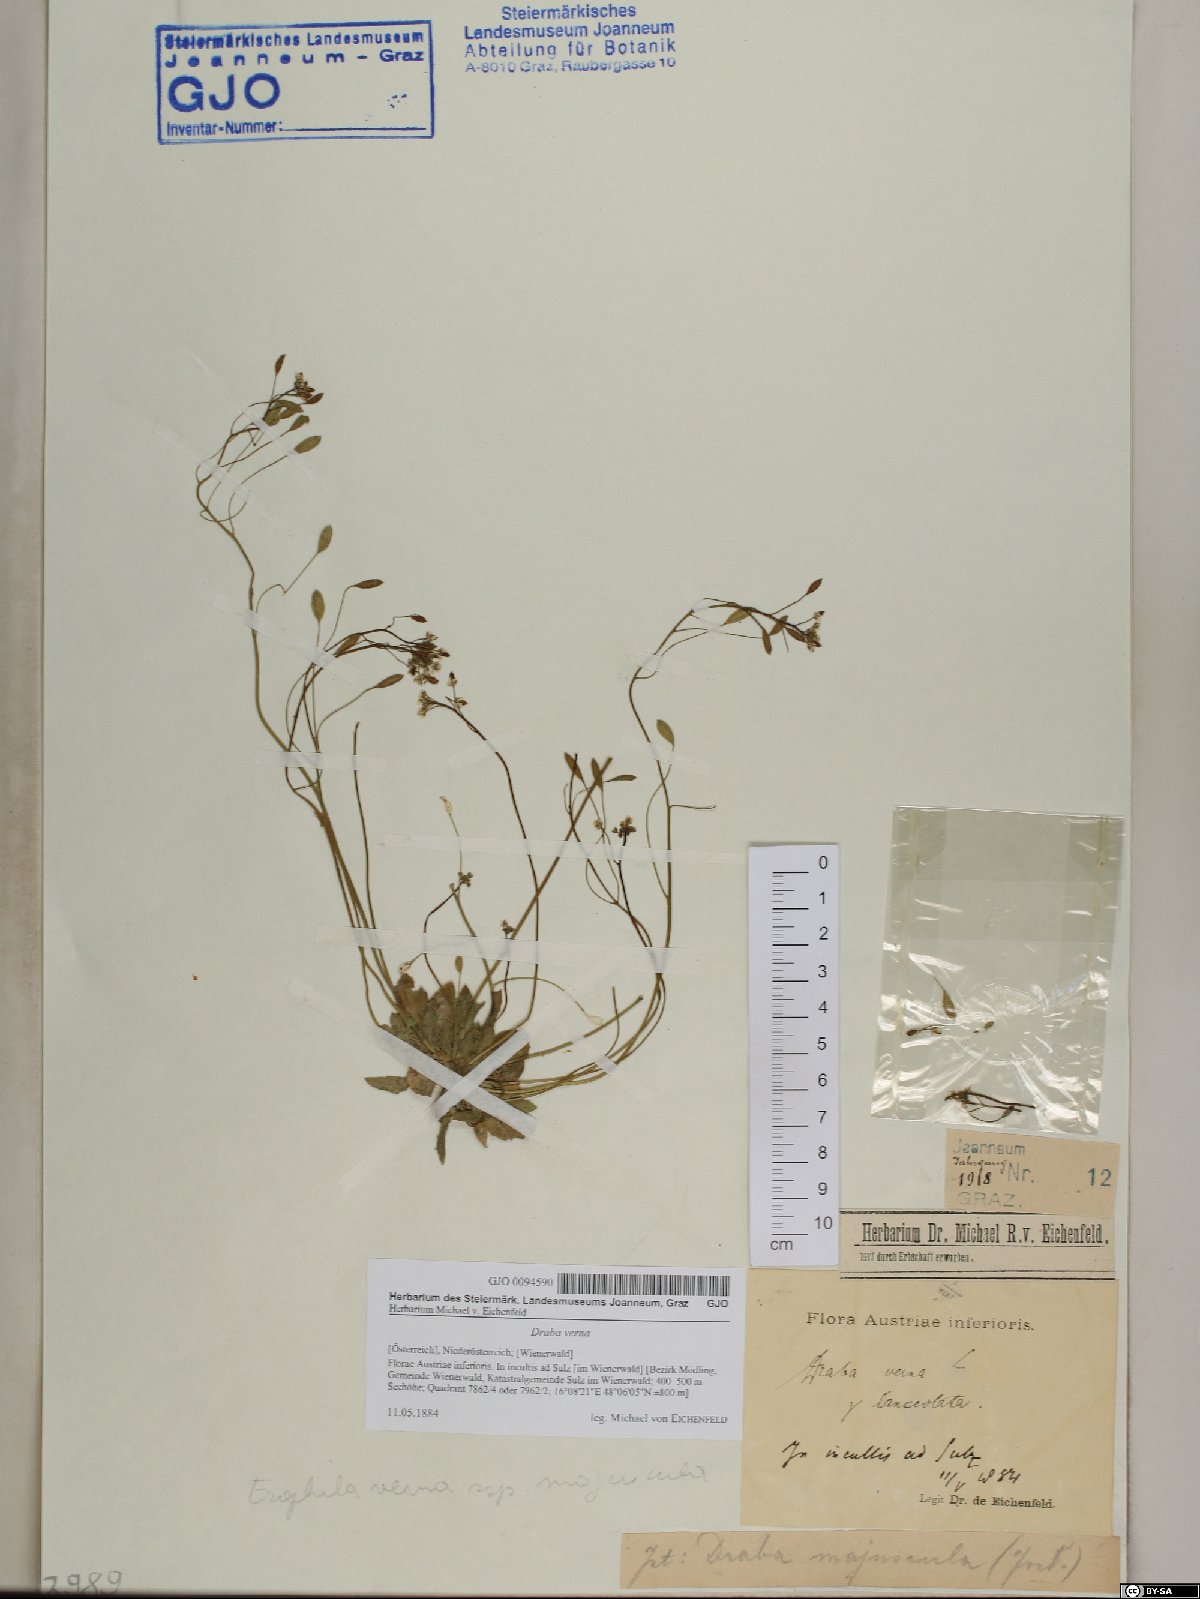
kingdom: Plantae
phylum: Tracheophyta
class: Magnoliopsida
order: Brassicales
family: Brassicaceae
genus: Draba
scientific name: Draba verna
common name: Spring draba
